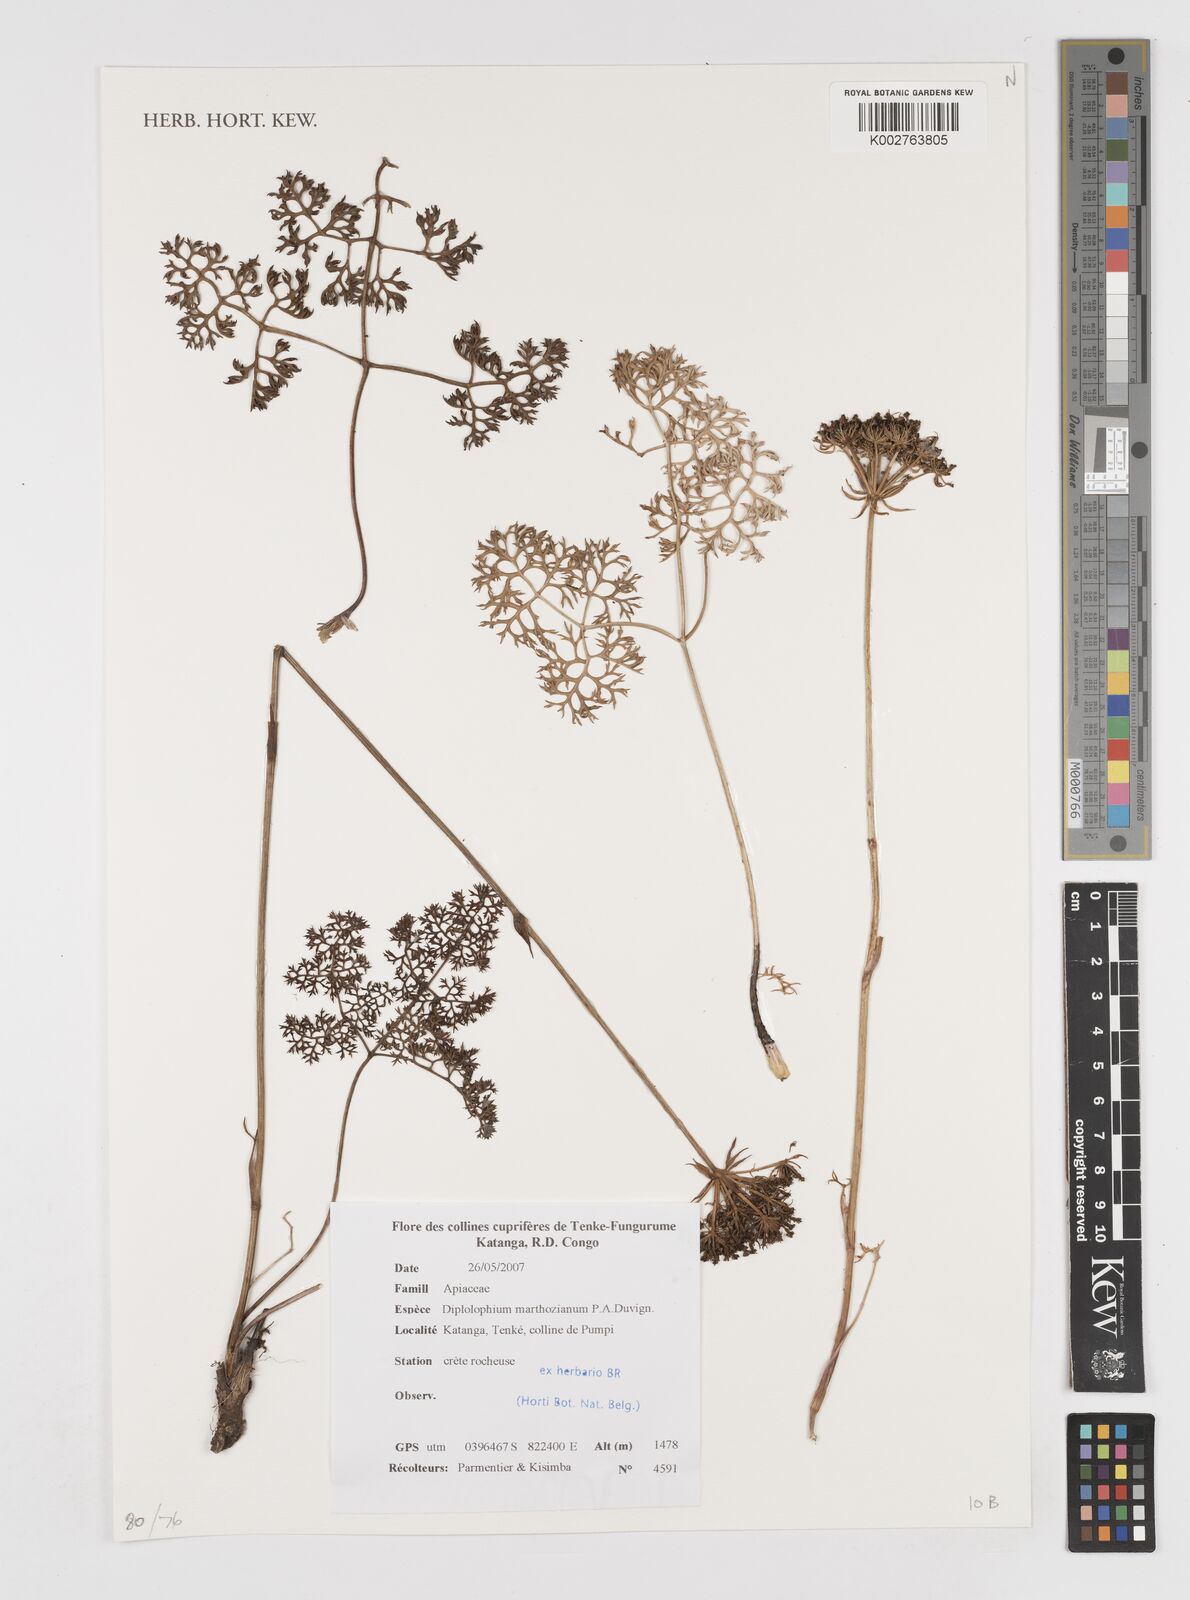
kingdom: Plantae
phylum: Tracheophyta
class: Magnoliopsida
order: Apiales
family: Apiaceae
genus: Physotrichia
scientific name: Physotrichia atropurpurea
